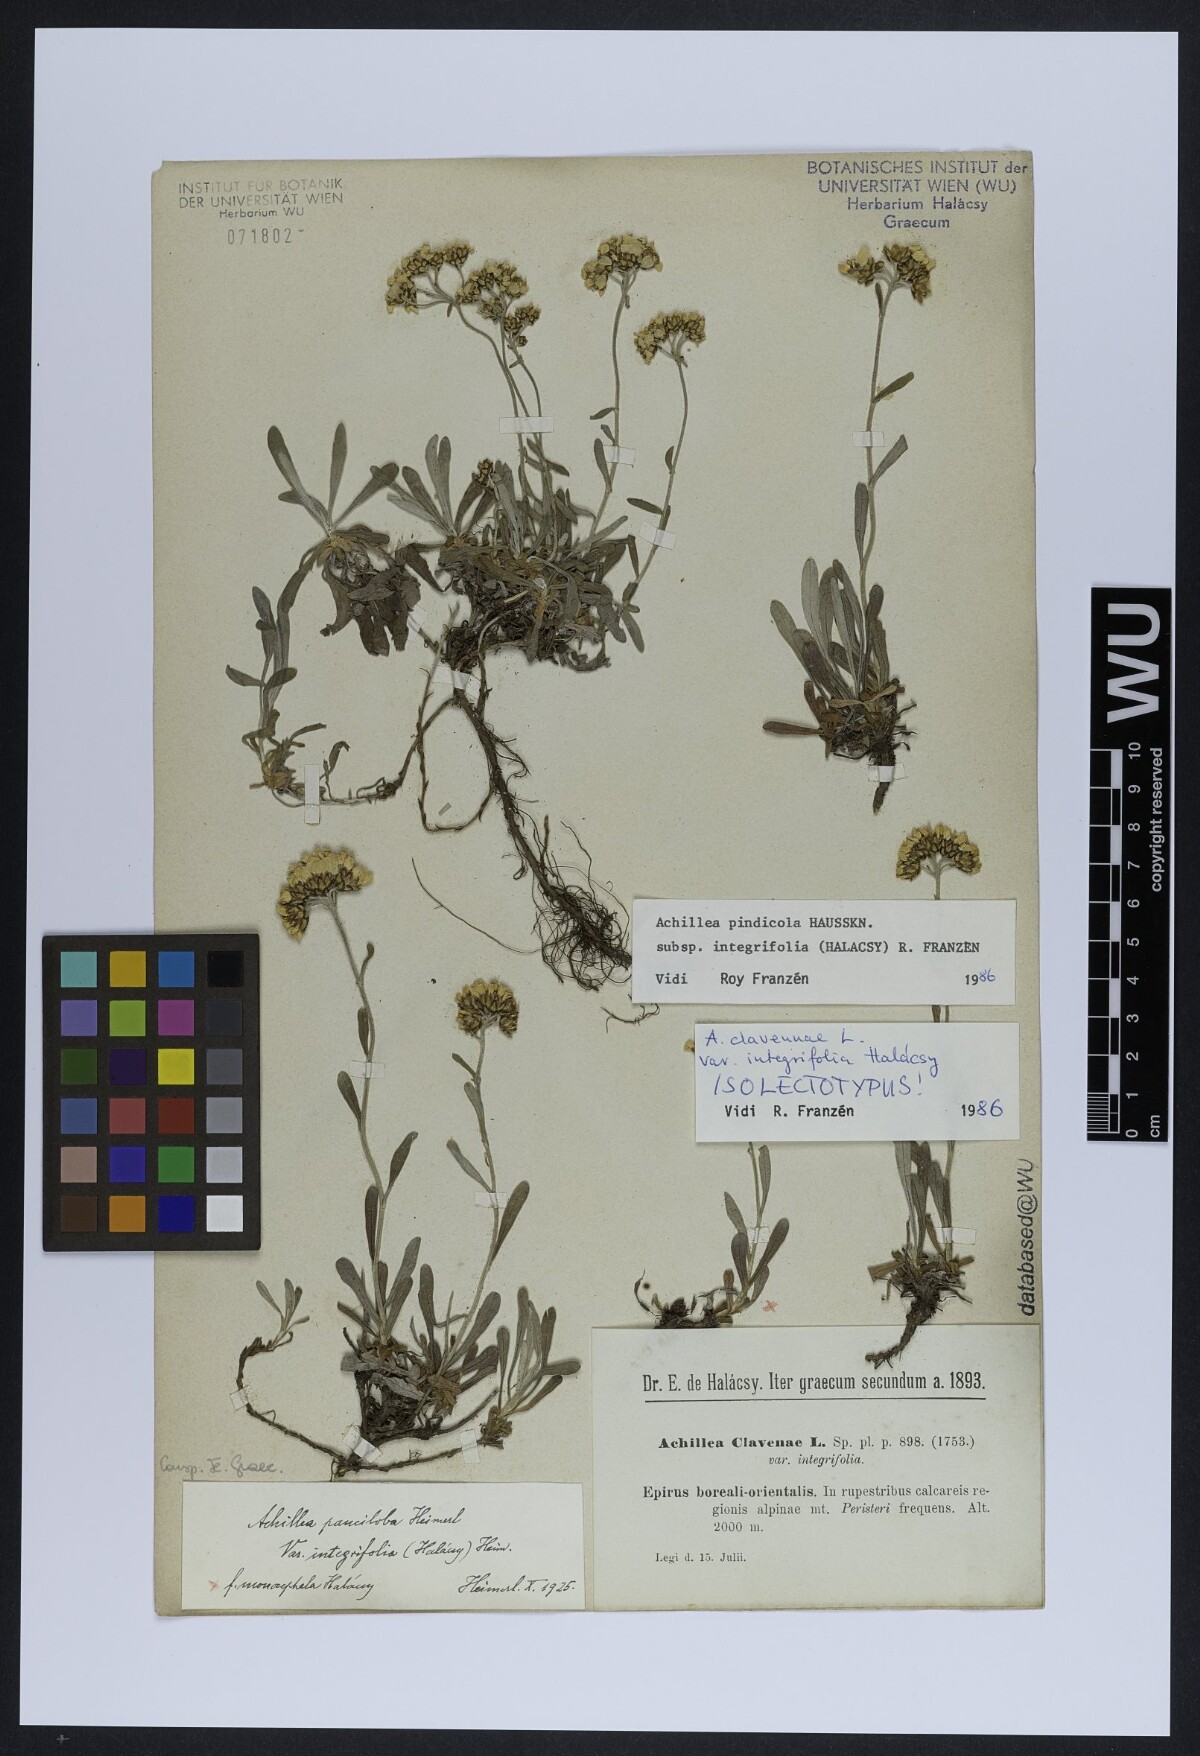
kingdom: Plantae
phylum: Tracheophyta
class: Magnoliopsida
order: Asterales
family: Asteraceae
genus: Achillea
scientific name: Achillea pindicola
